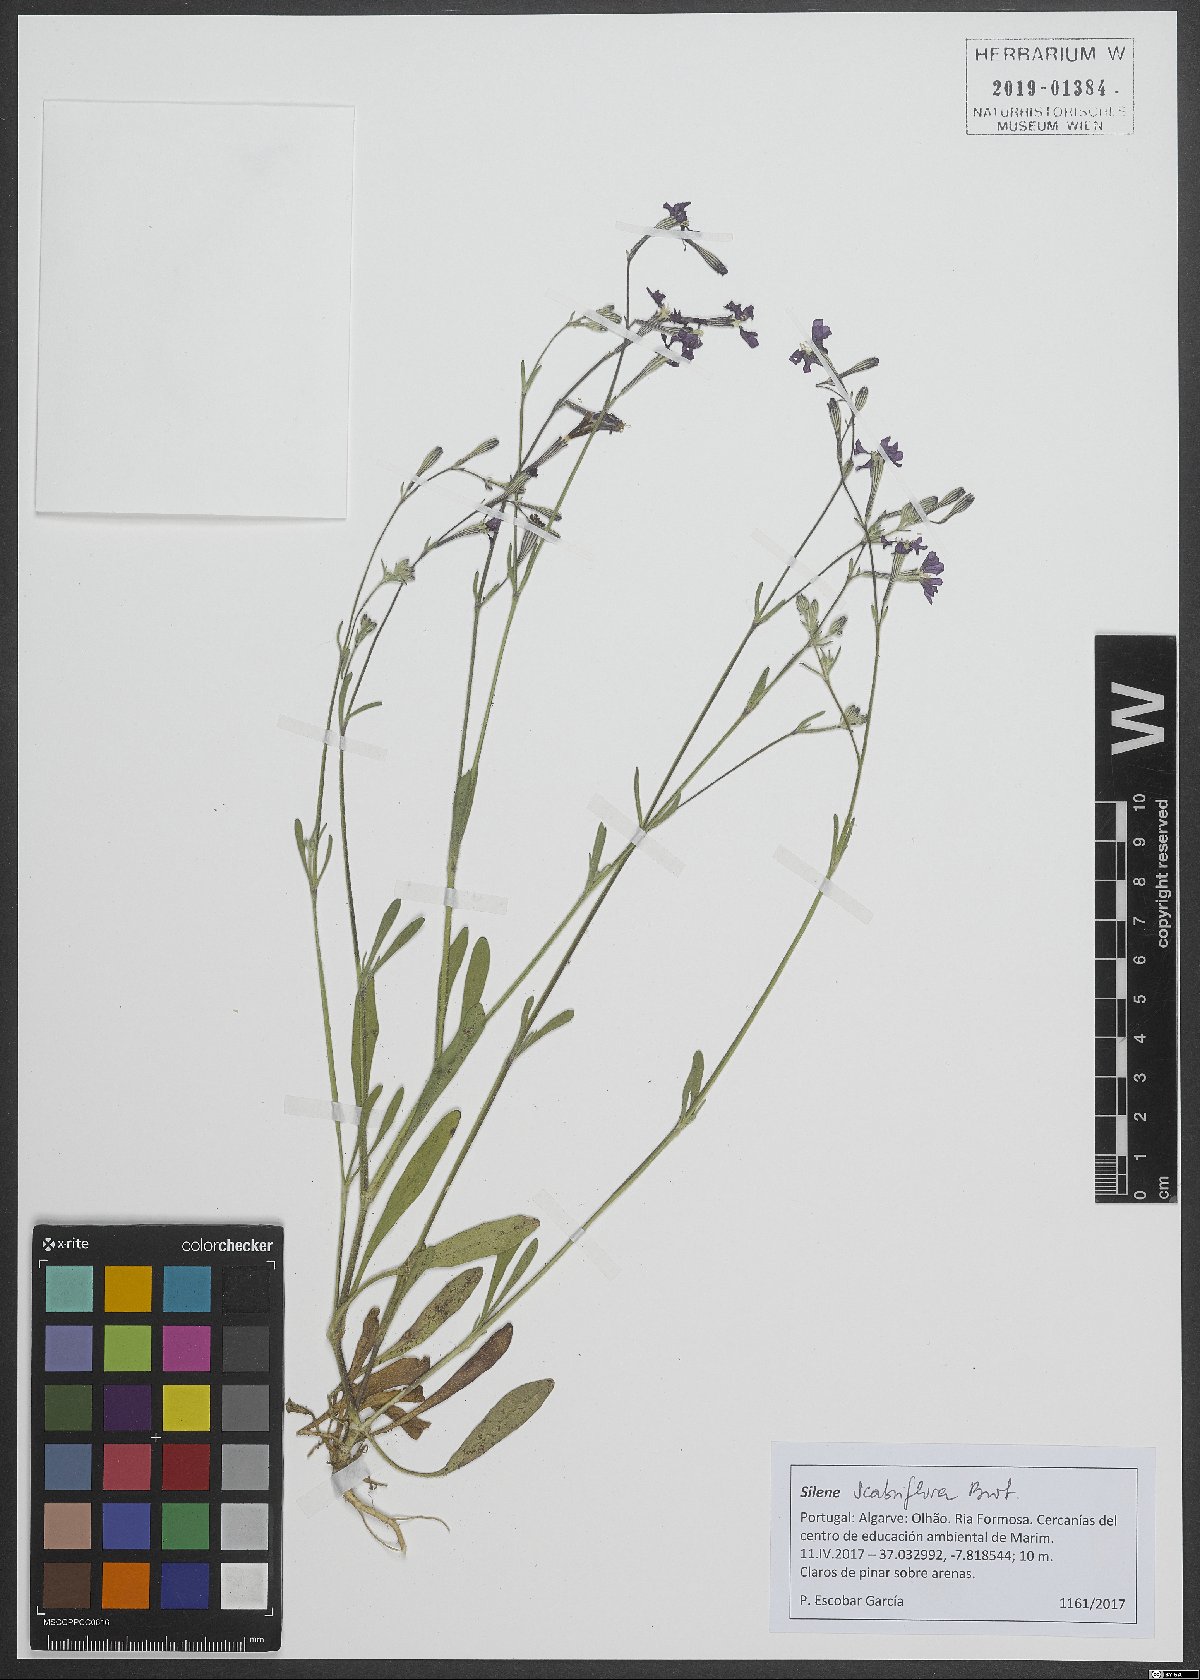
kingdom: Plantae
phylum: Tracheophyta
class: Magnoliopsida
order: Caryophyllales
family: Caryophyllaceae
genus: Silene
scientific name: Silene scabriflora
